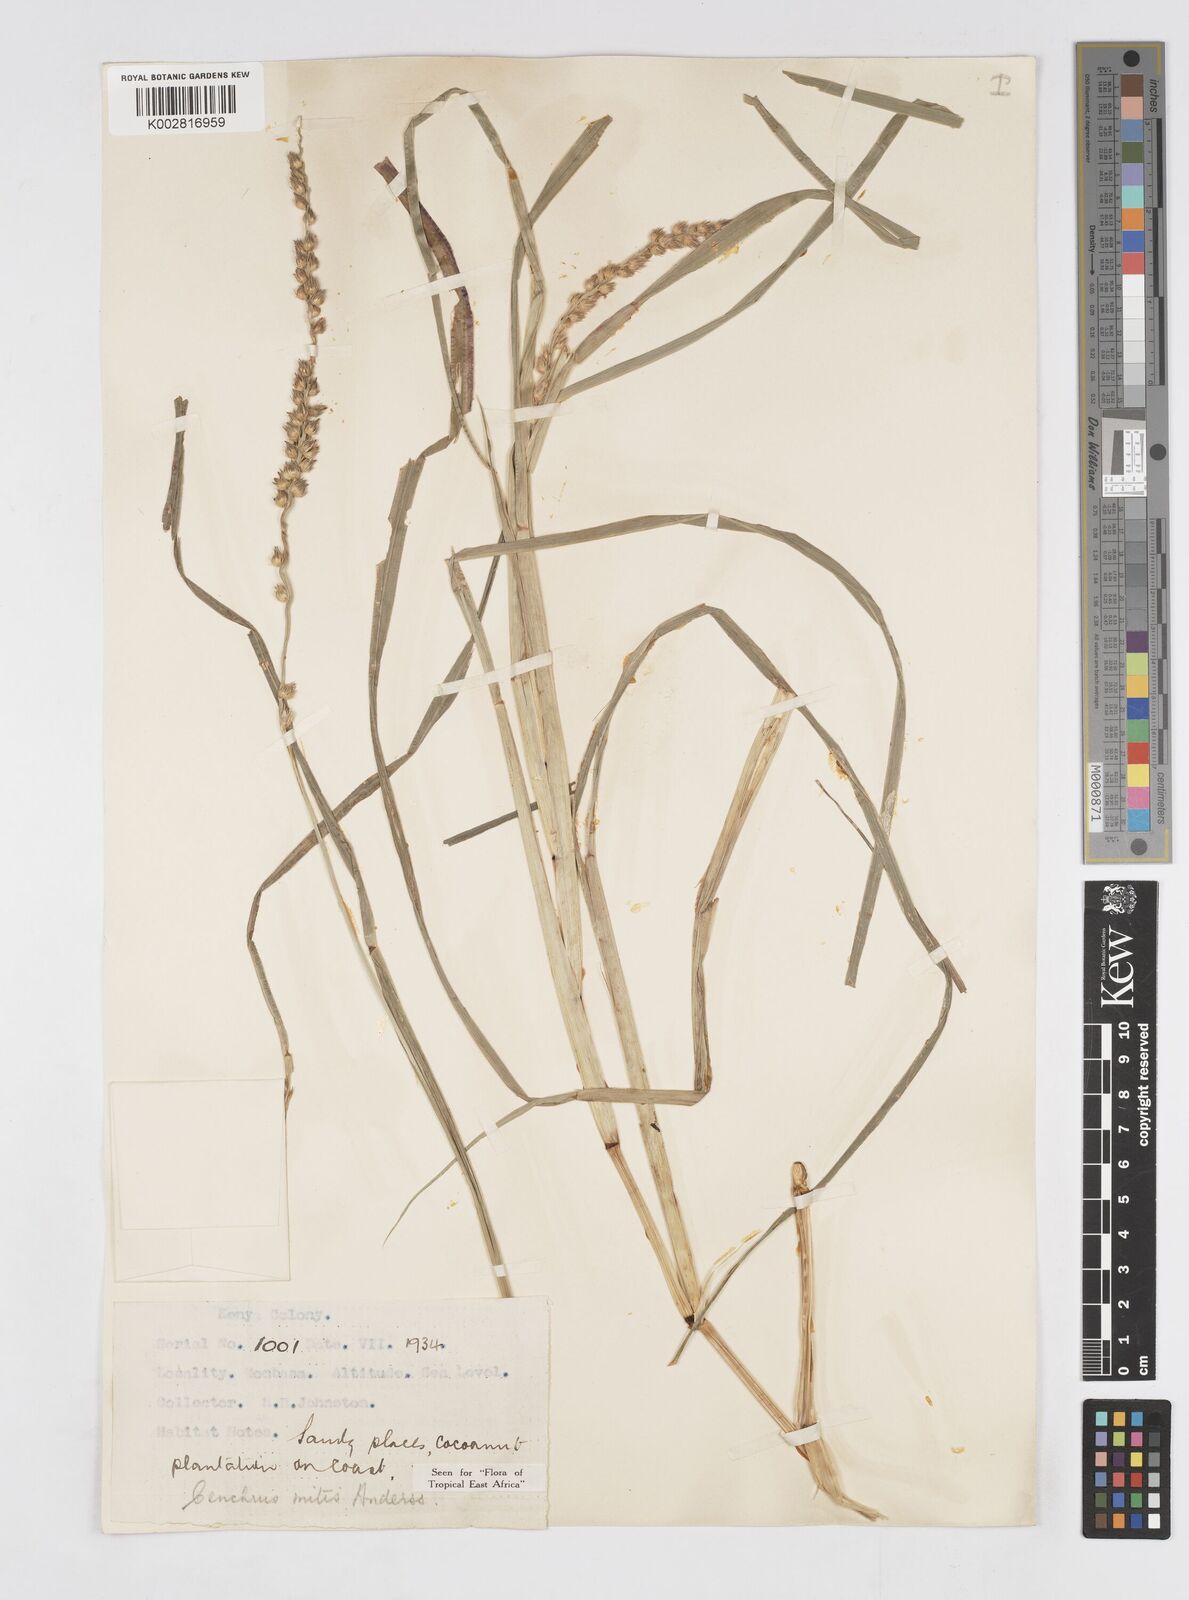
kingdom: Plantae
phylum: Tracheophyta
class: Liliopsida
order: Poales
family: Poaceae
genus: Cenchrus
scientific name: Cenchrus mitis
